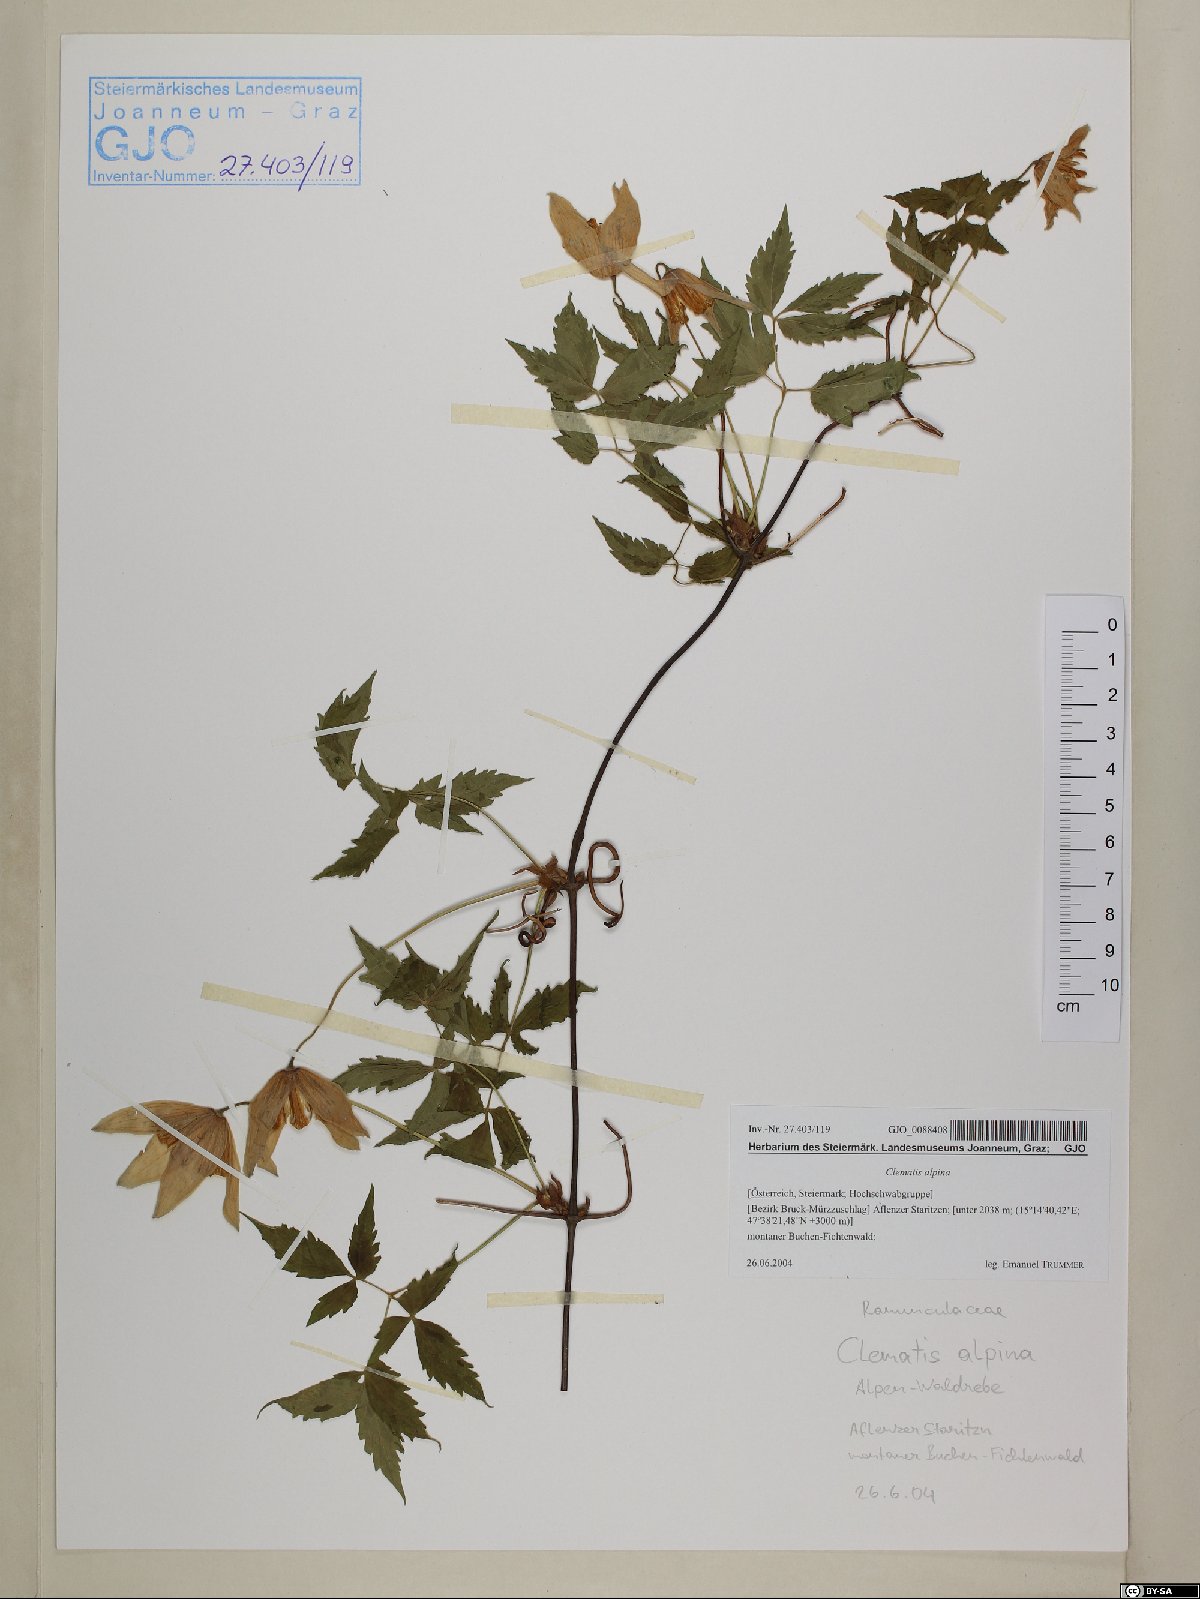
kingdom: Plantae
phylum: Tracheophyta
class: Magnoliopsida
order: Ranunculales
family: Ranunculaceae
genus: Clematis
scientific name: Clematis alpina
